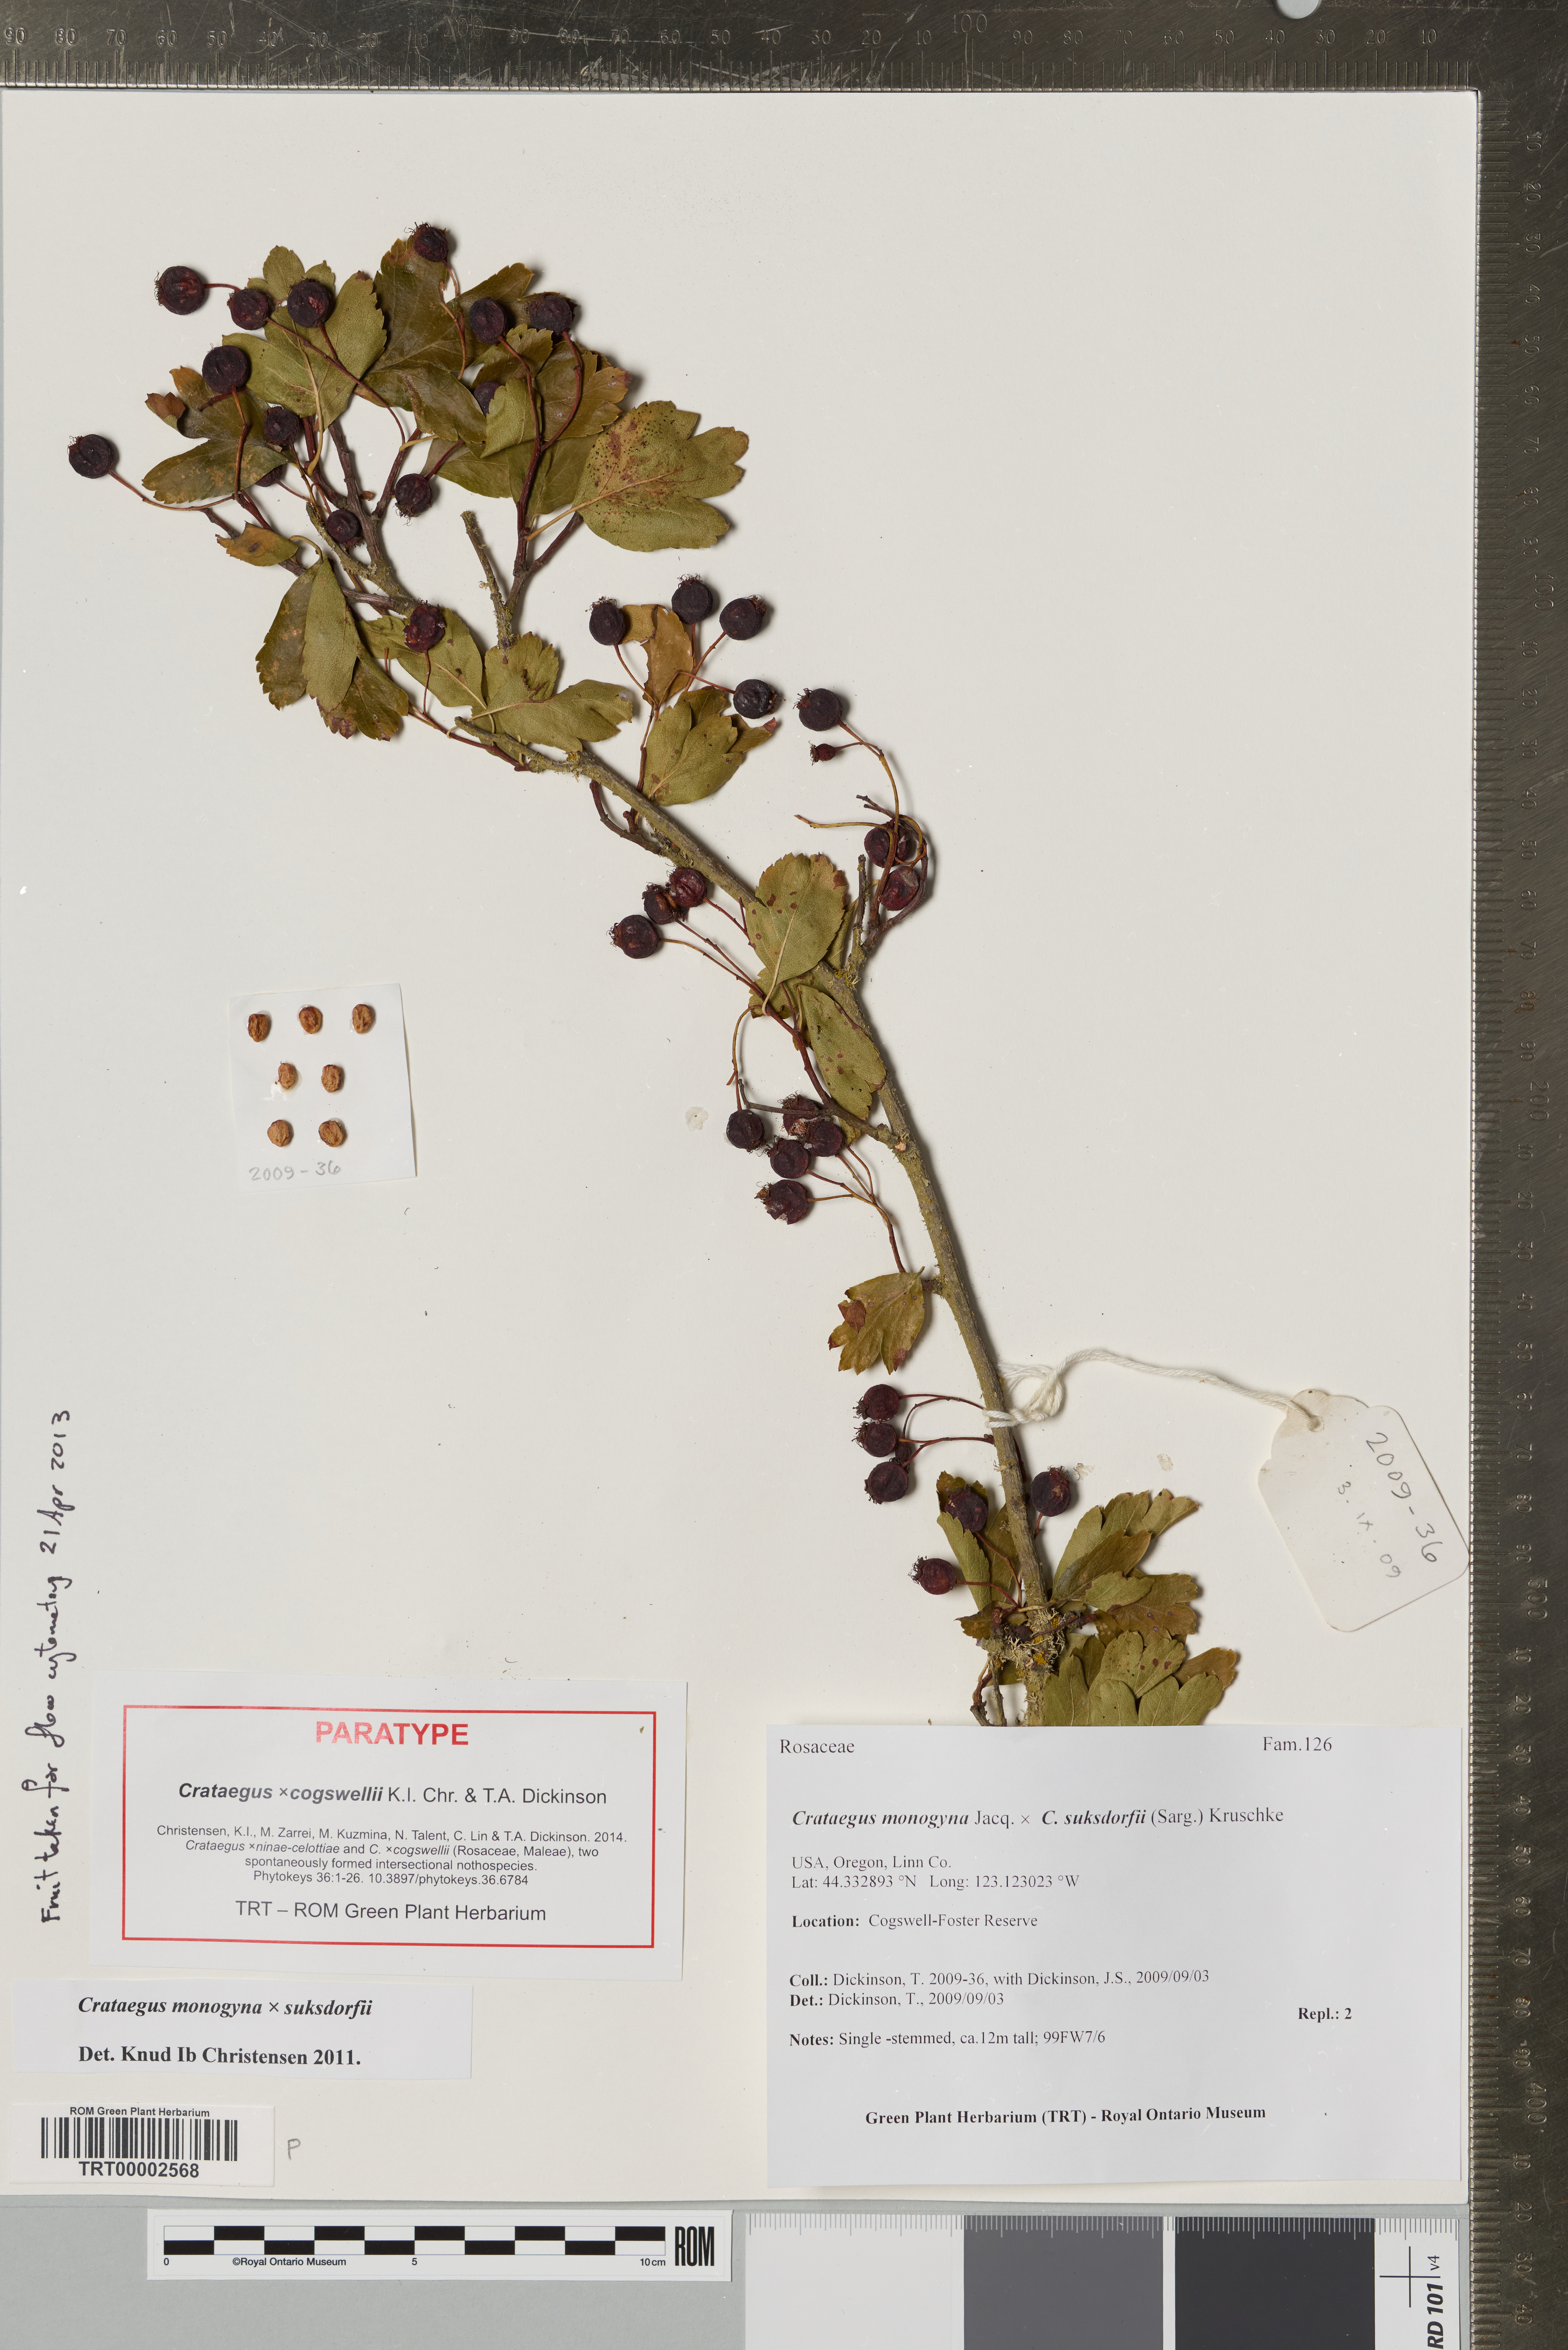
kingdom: Plantae
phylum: Tracheophyta
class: Magnoliopsida
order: Rosales
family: Rosaceae
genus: Crataegus
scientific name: Crataegus
